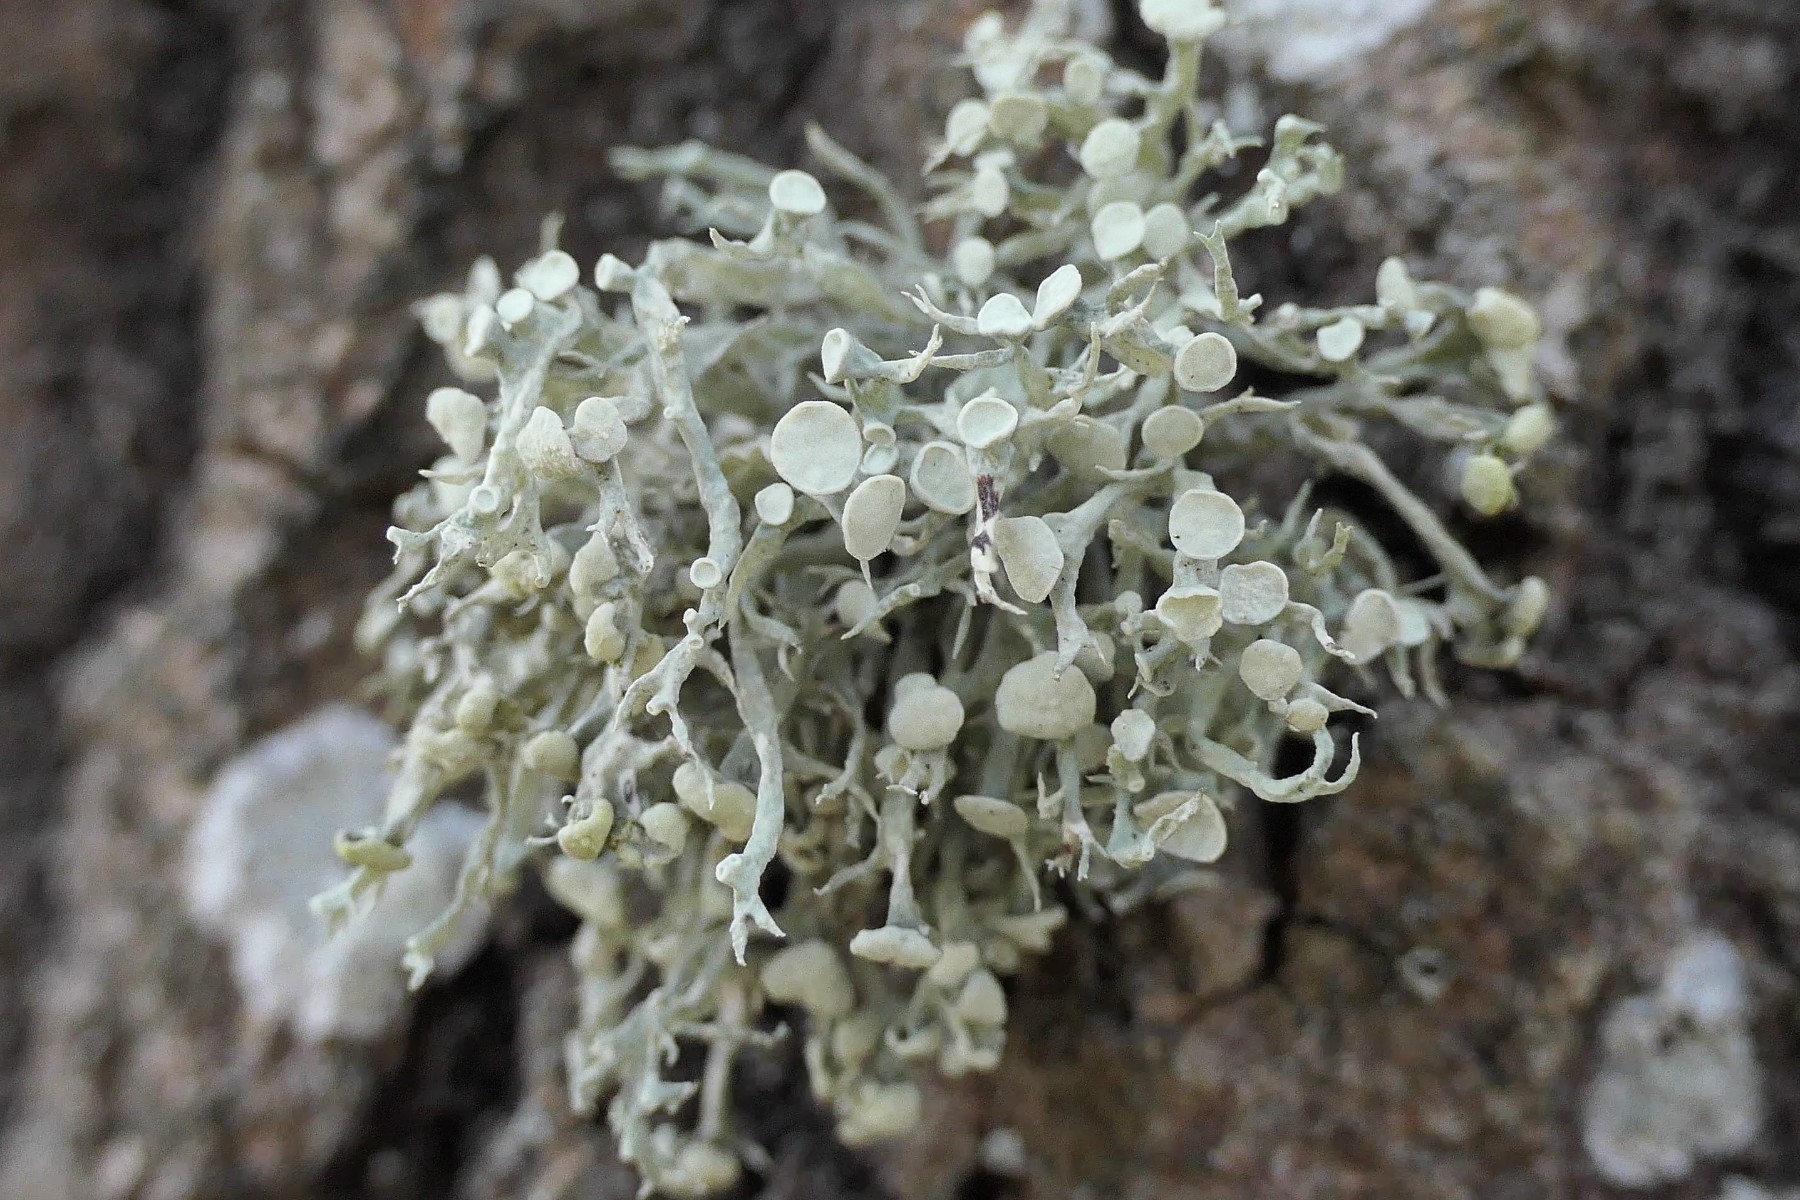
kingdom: Fungi
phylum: Ascomycota
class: Lecanoromycetes
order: Lecanorales
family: Ramalinaceae
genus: Ramalina
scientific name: Ramalina fastigiata
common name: tue-grenlav
